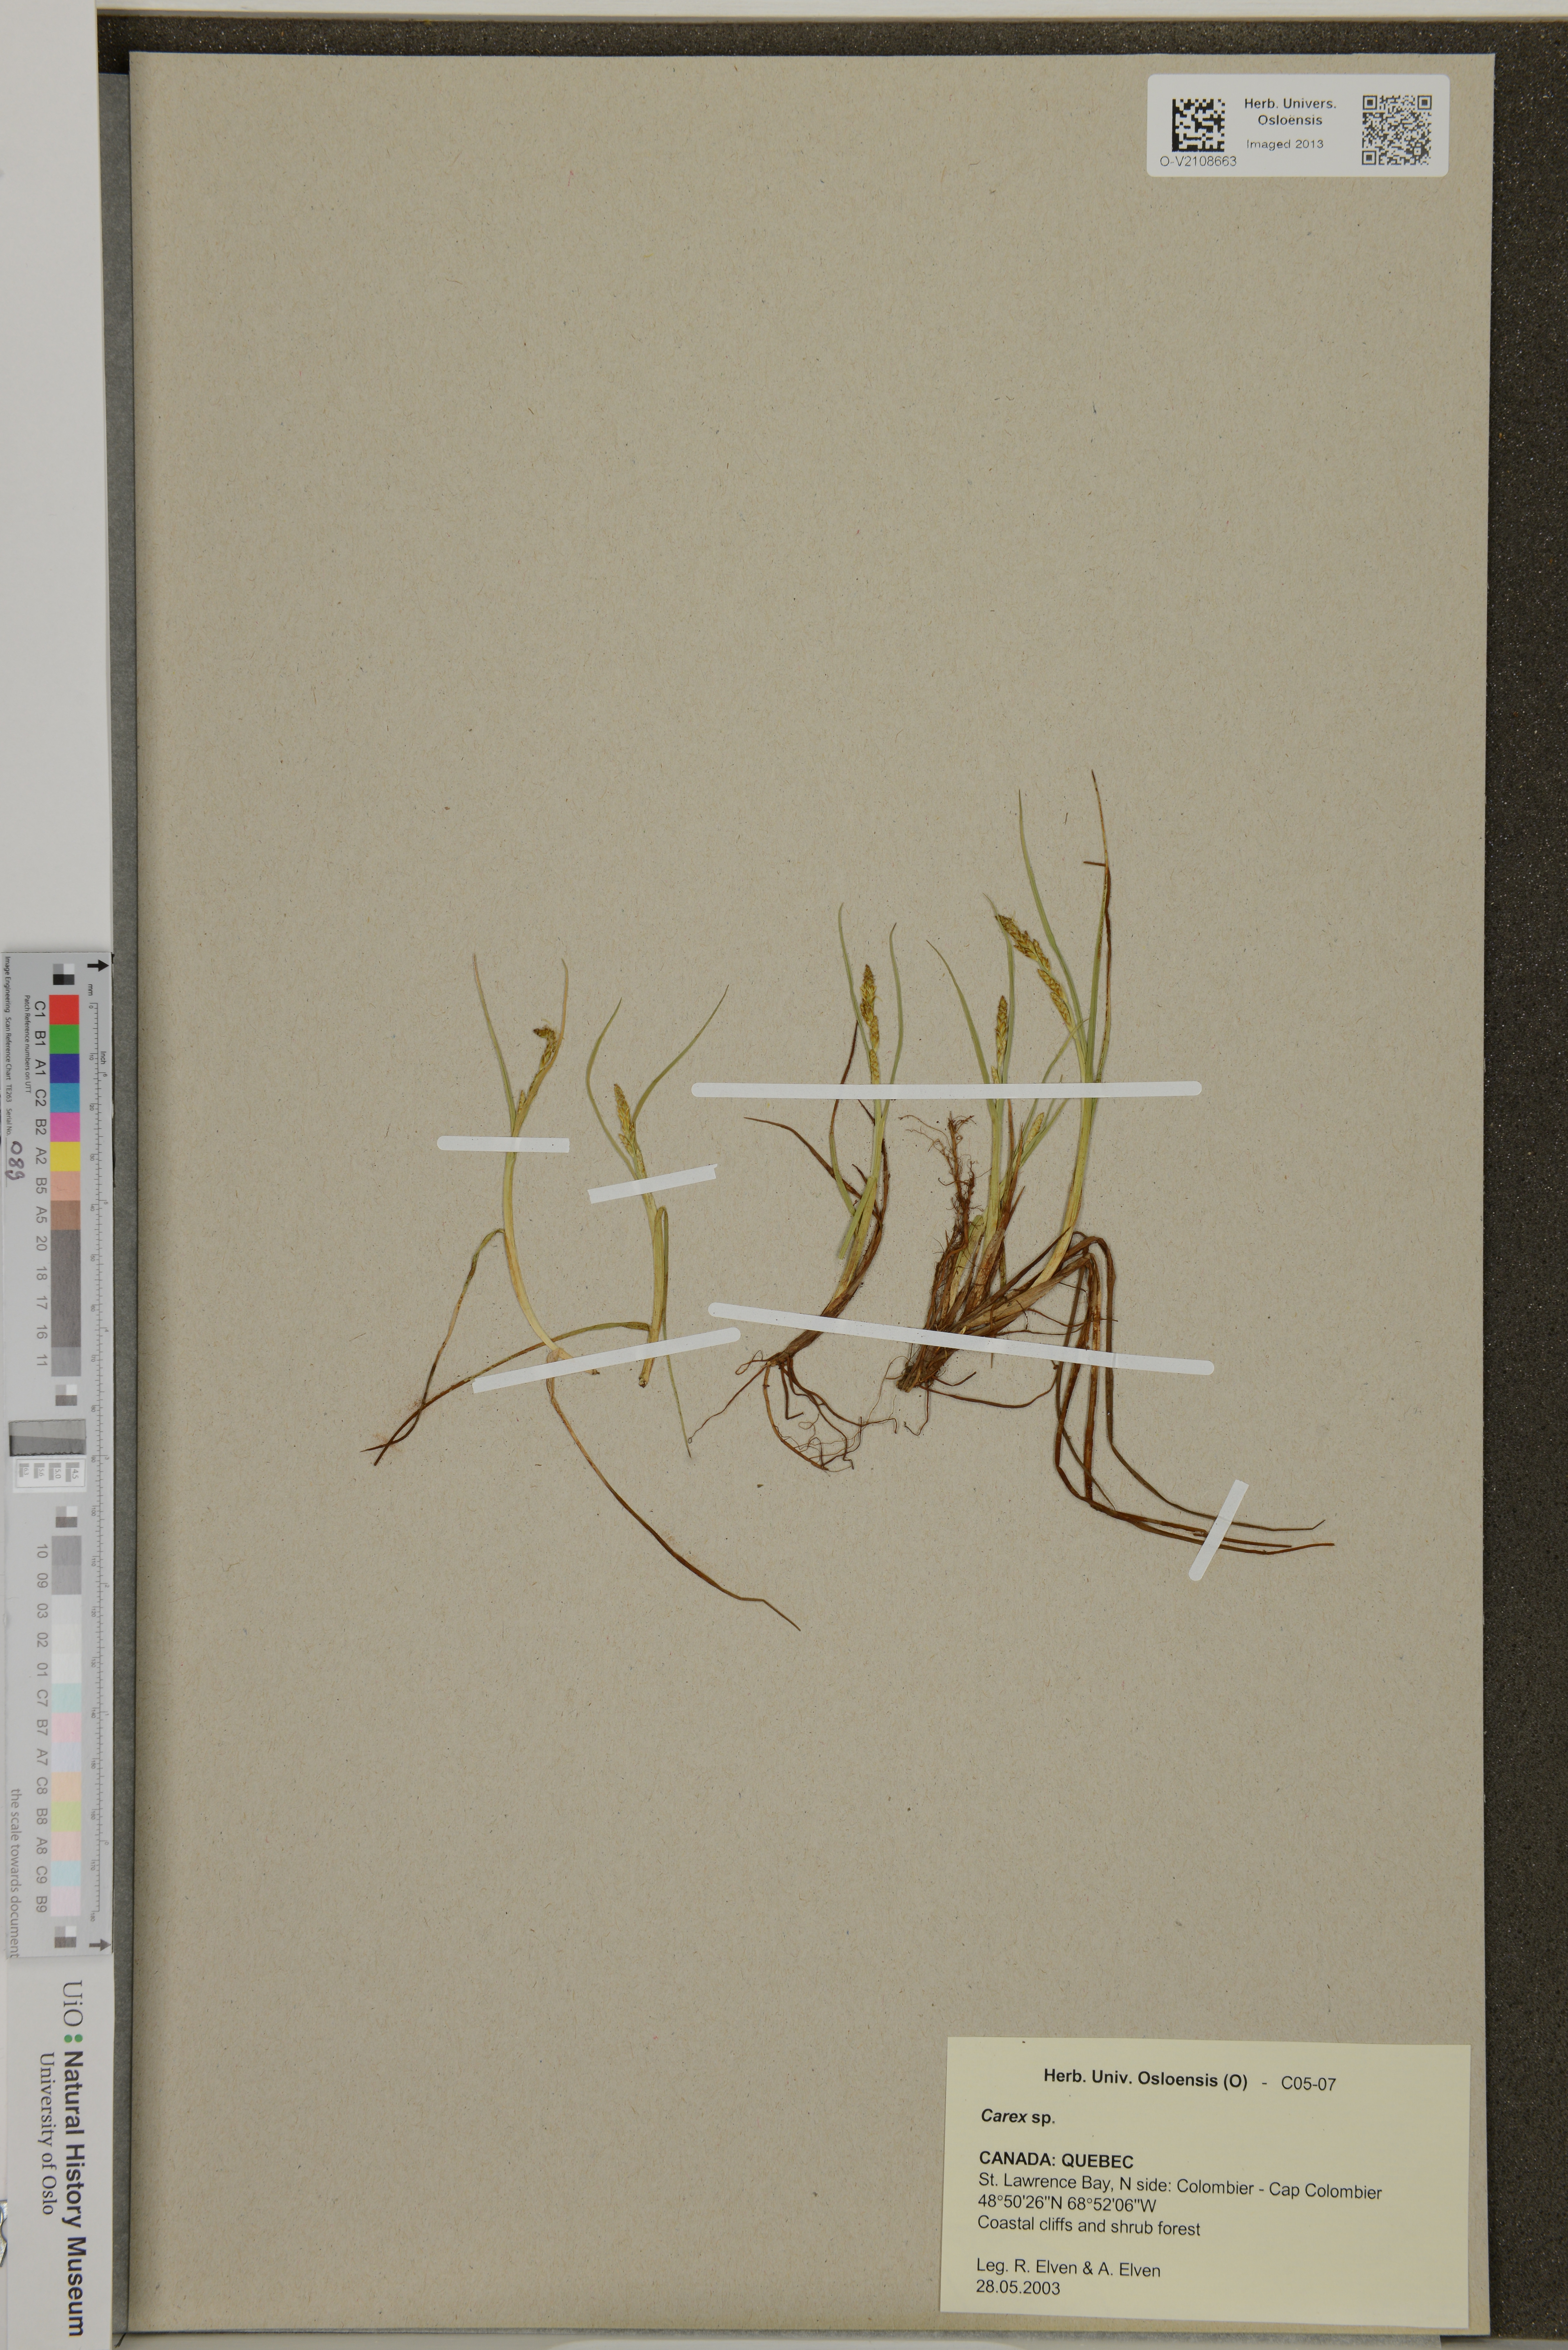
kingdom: Plantae
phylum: Tracheophyta
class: Liliopsida
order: Poales
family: Cyperaceae
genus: Carex
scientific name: Carex
